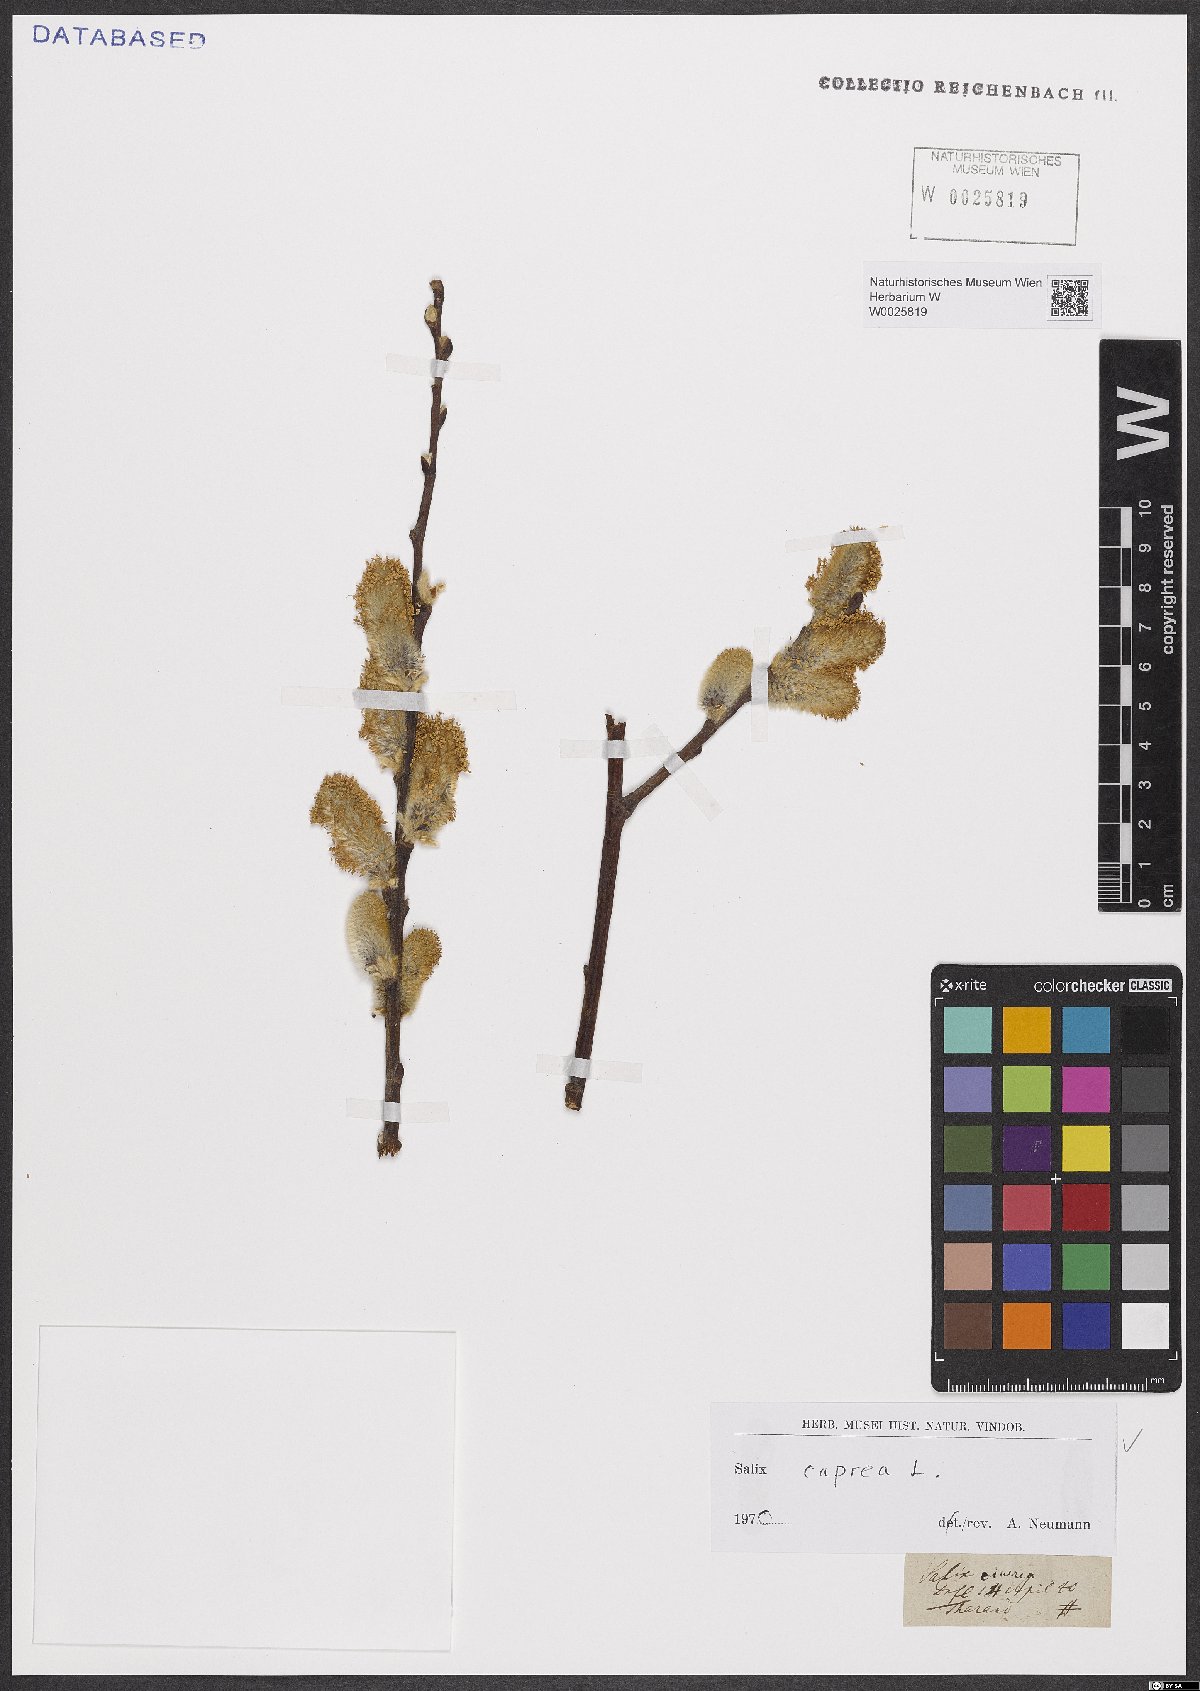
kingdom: Plantae
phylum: Tracheophyta
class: Magnoliopsida
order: Malpighiales
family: Salicaceae
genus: Salix
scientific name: Salix caprea
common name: Goat willow
